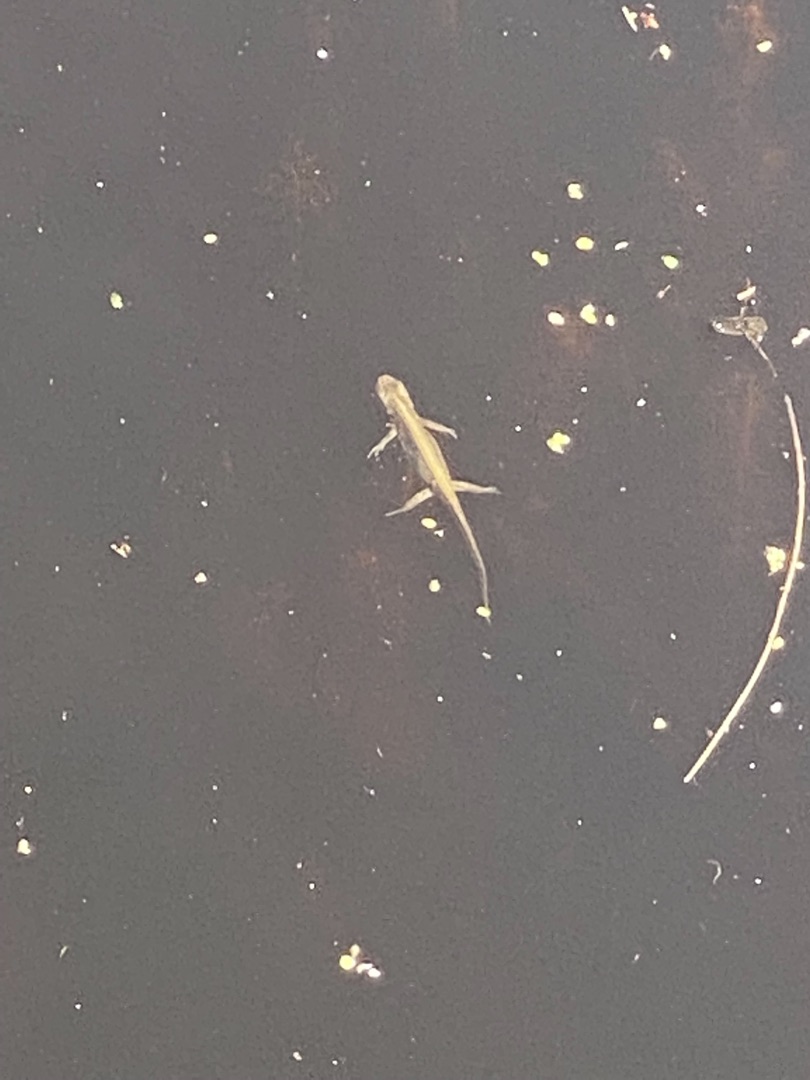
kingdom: Animalia
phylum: Chordata
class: Amphibia
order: Caudata
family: Salamandridae
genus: Lissotriton
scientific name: Lissotriton vulgaris
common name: Lille vandsalamander
